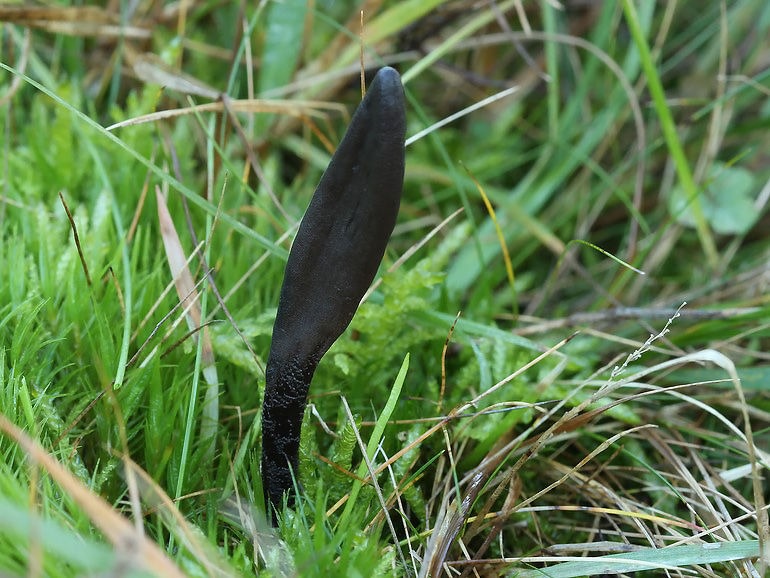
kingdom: Fungi
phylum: Ascomycota
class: Geoglossomycetes
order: Geoglossales
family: Geoglossaceae
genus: Geoglossum
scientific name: Geoglossum fallax
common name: småskællet jordtunge
